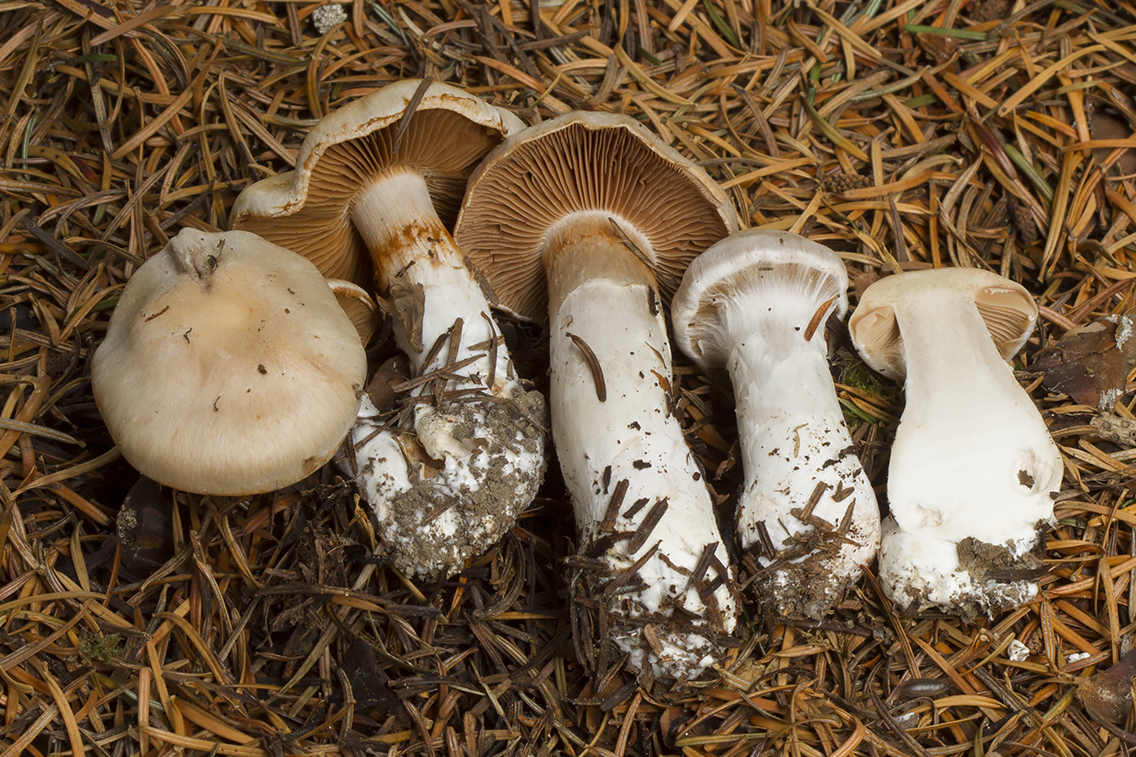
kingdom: Fungi
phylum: Basidiomycota
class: Agaricomycetes
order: Agaricales
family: Cortinariaceae
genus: Cortinarius
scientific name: Cortinarius uxorum
